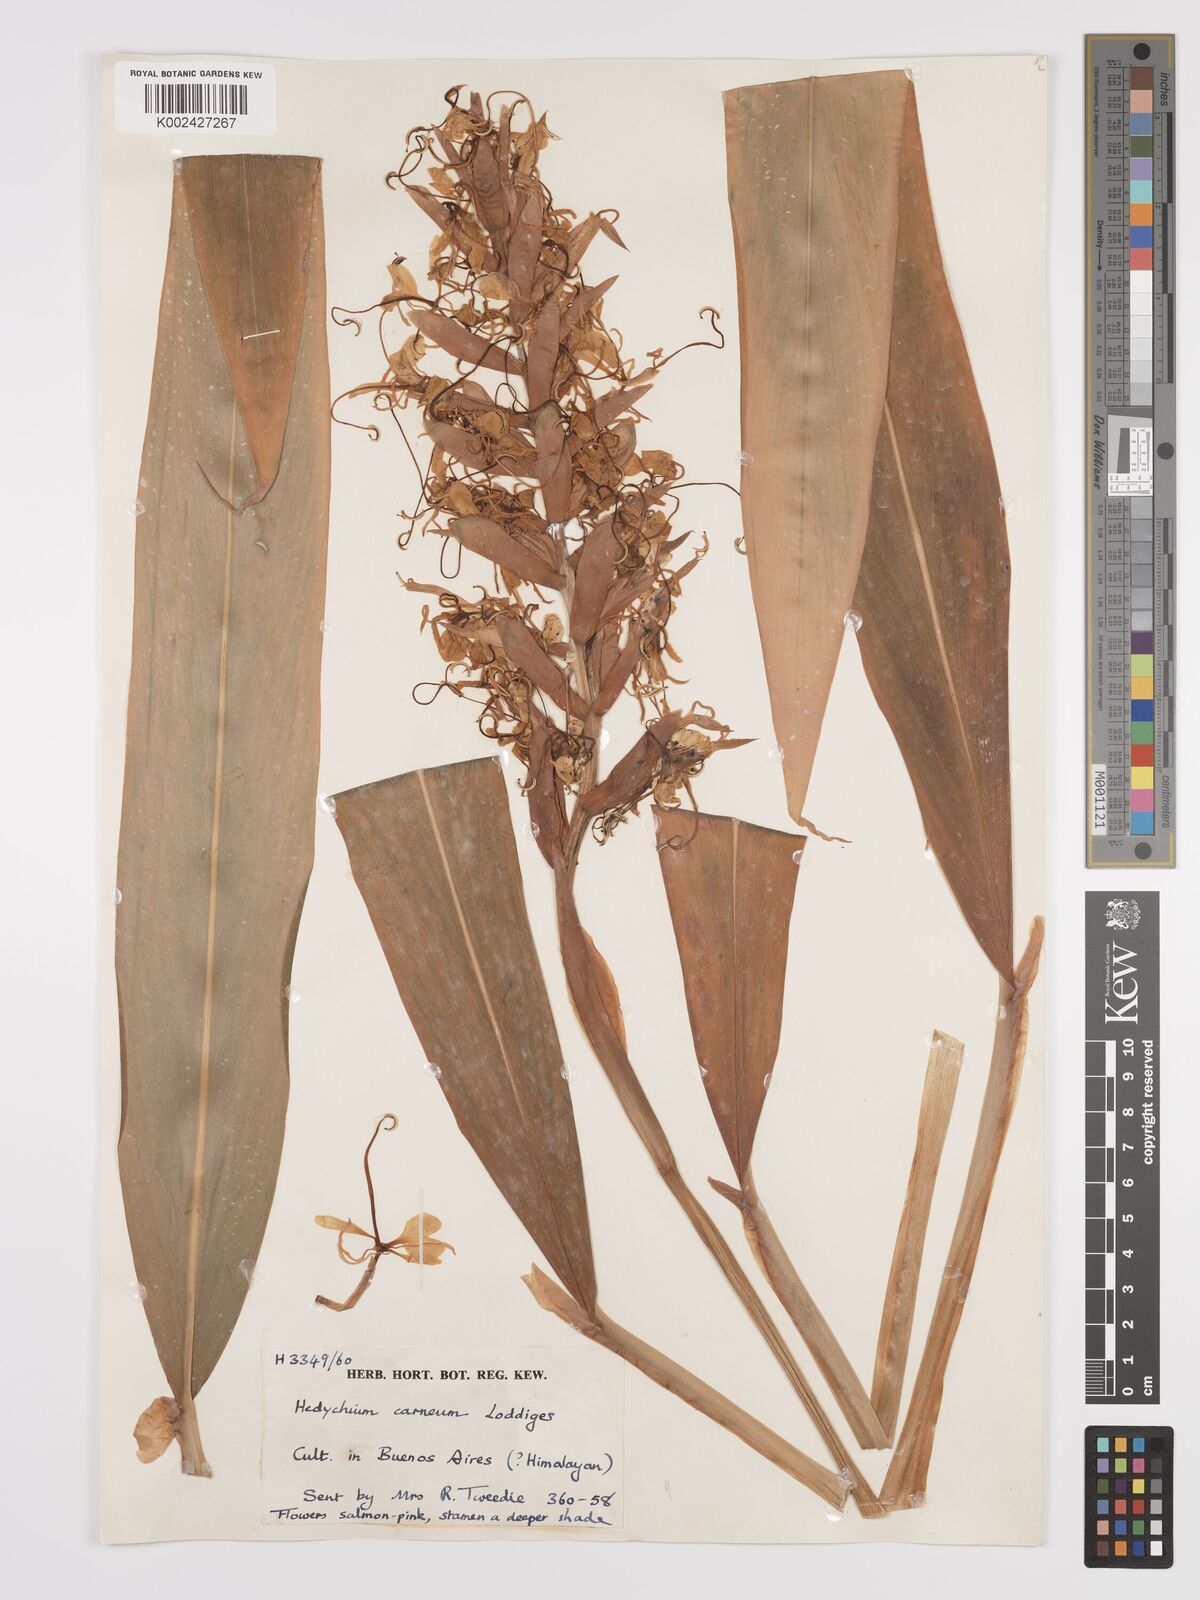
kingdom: Plantae
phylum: Tracheophyta
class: Liliopsida
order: Zingiberales
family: Zingiberaceae
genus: Hedychium
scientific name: Hedychium coccineum
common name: Red ginger-lily
